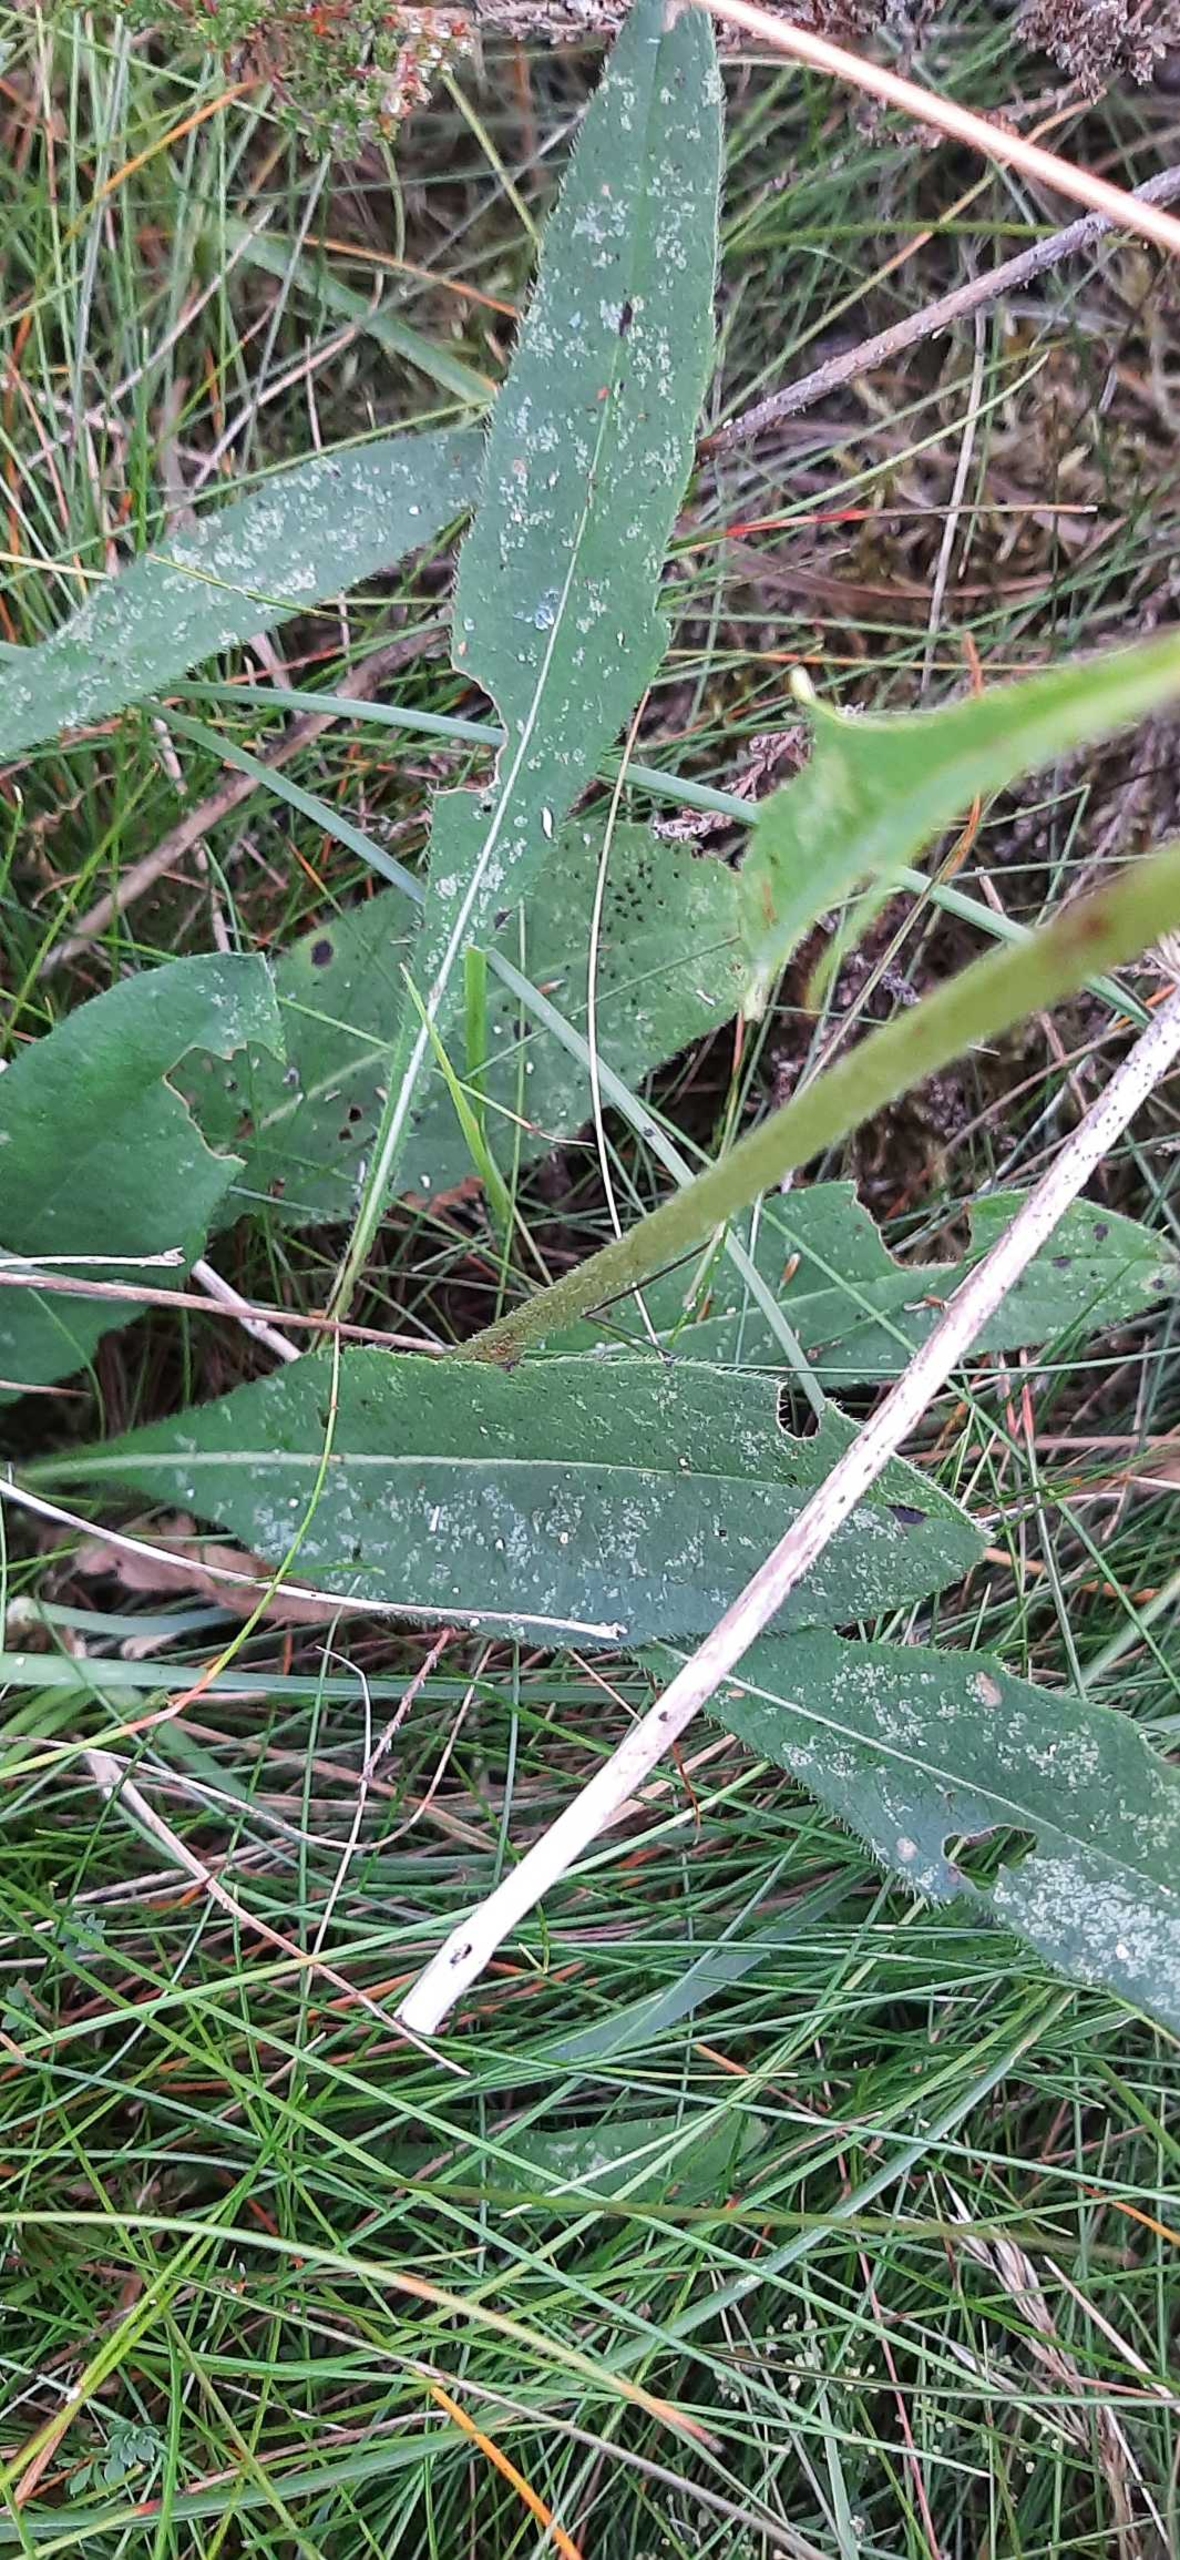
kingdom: Plantae
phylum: Tracheophyta
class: Magnoliopsida
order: Dipsacales
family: Caprifoliaceae
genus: Succisa
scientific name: Succisa pratensis
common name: Djævelsbid
